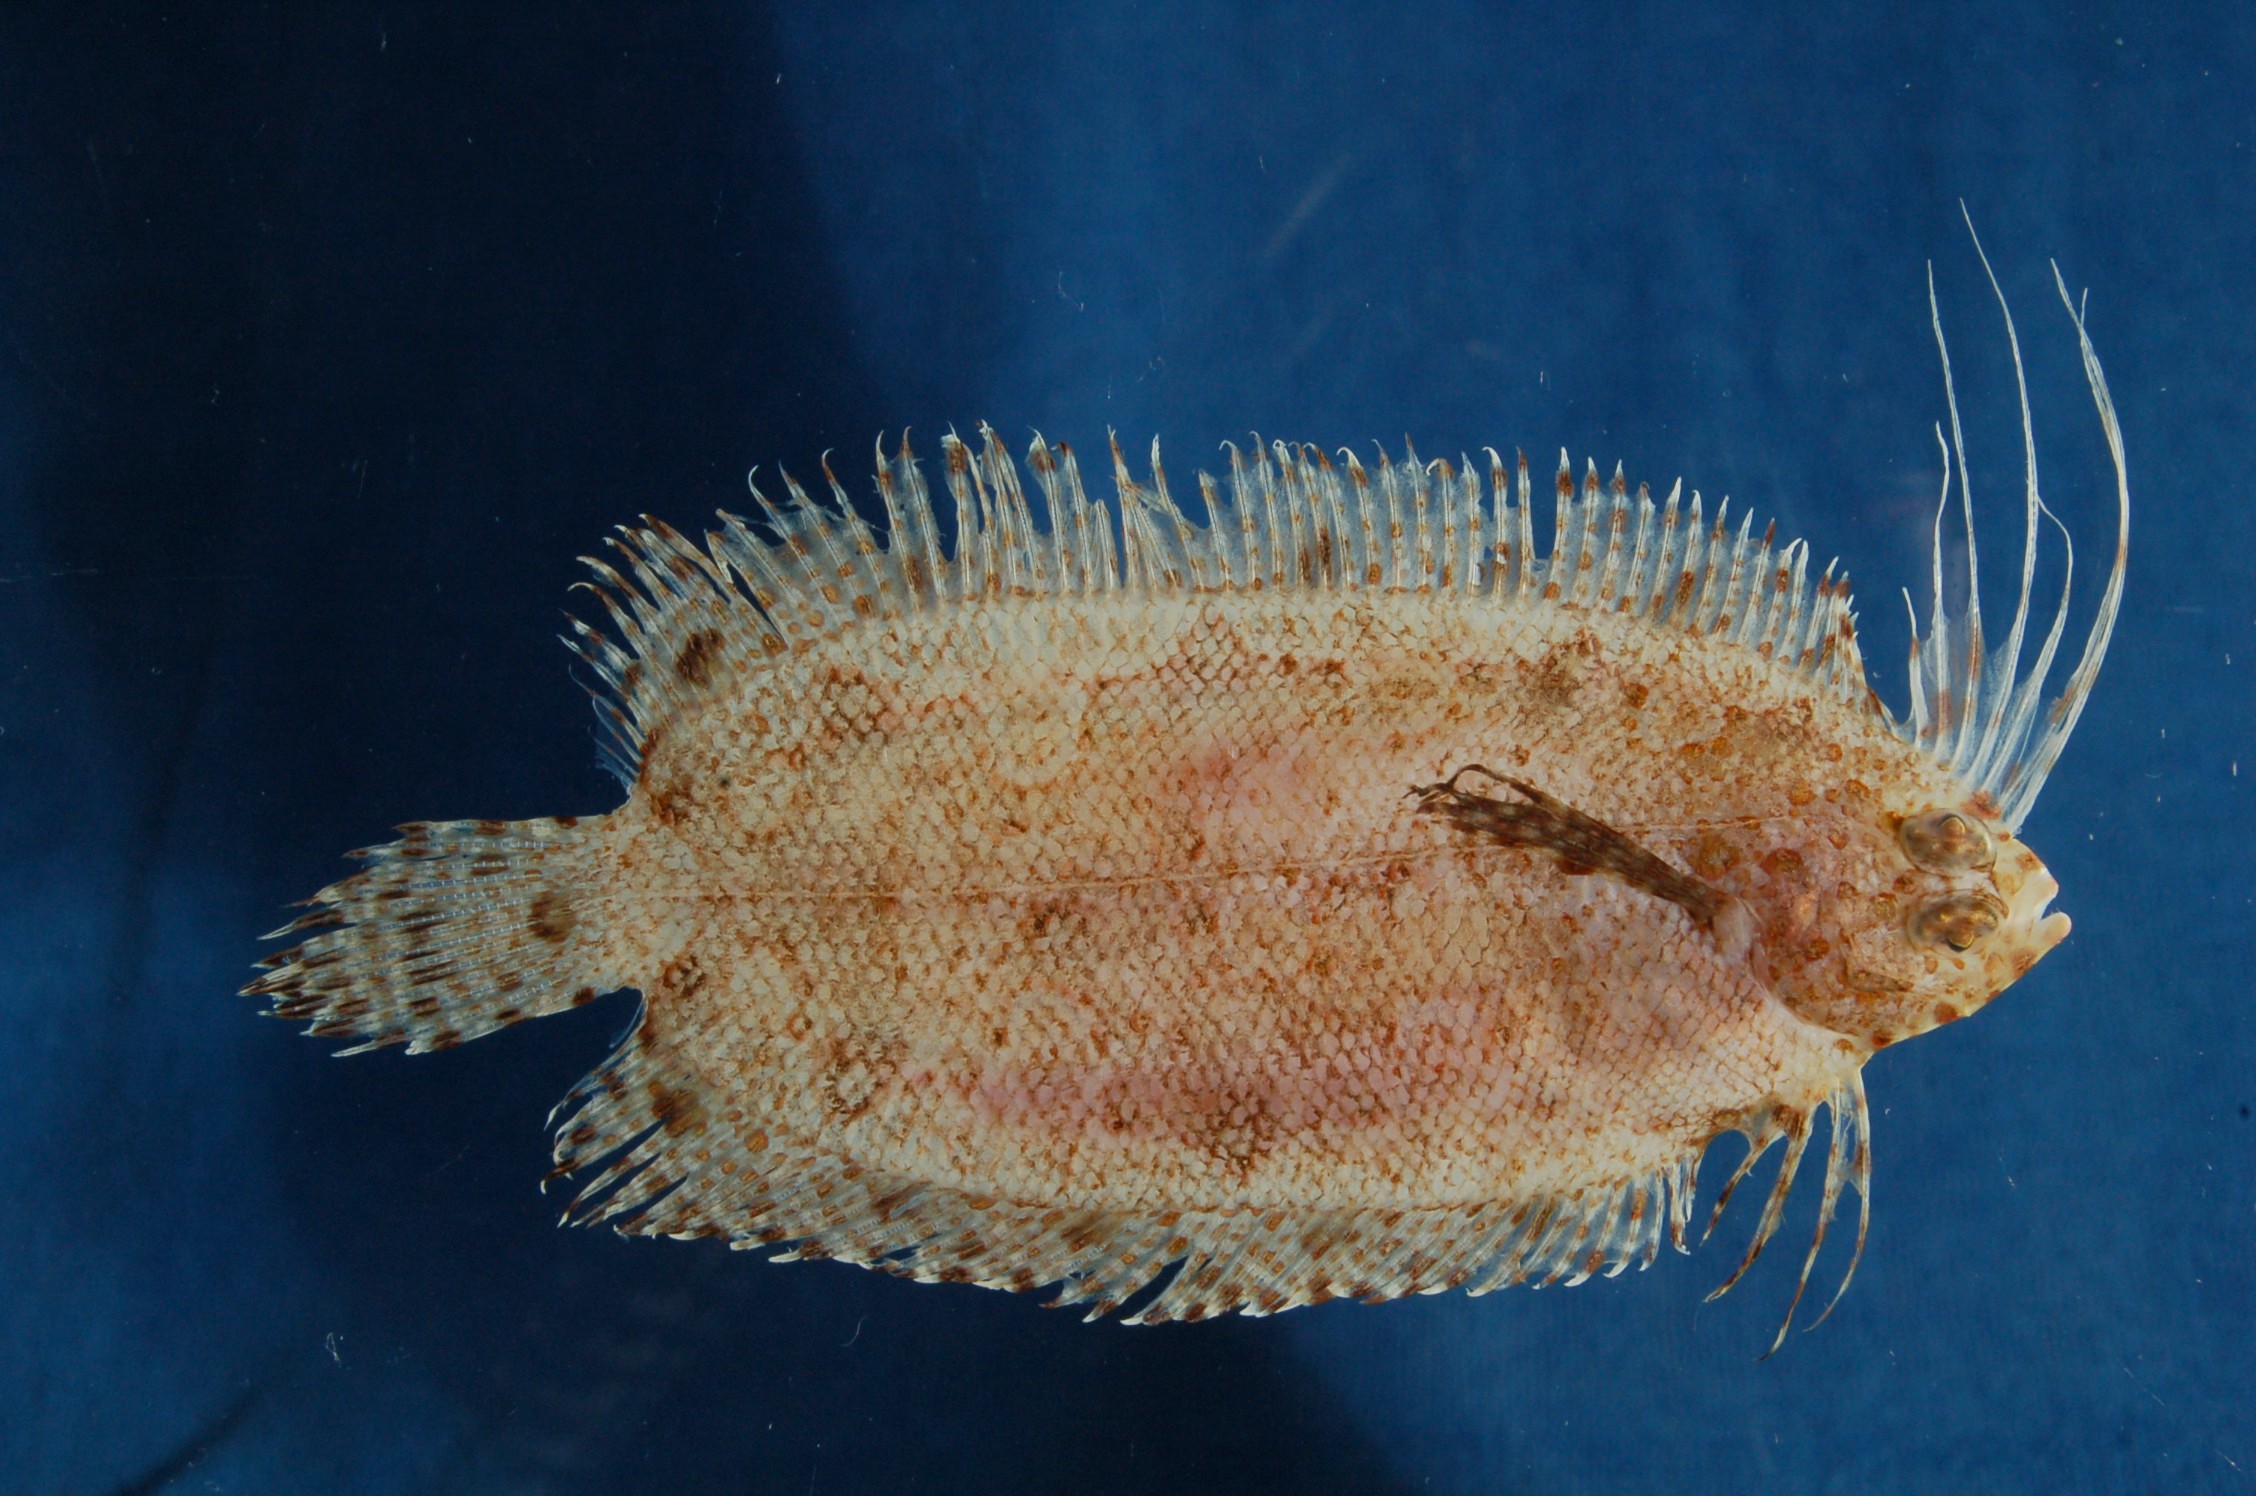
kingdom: Animalia
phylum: Chordata
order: Pleuronectiformes
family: Samaridae
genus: Samaris
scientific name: Samaris macrolepis
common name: Bigfin righteye flounder
